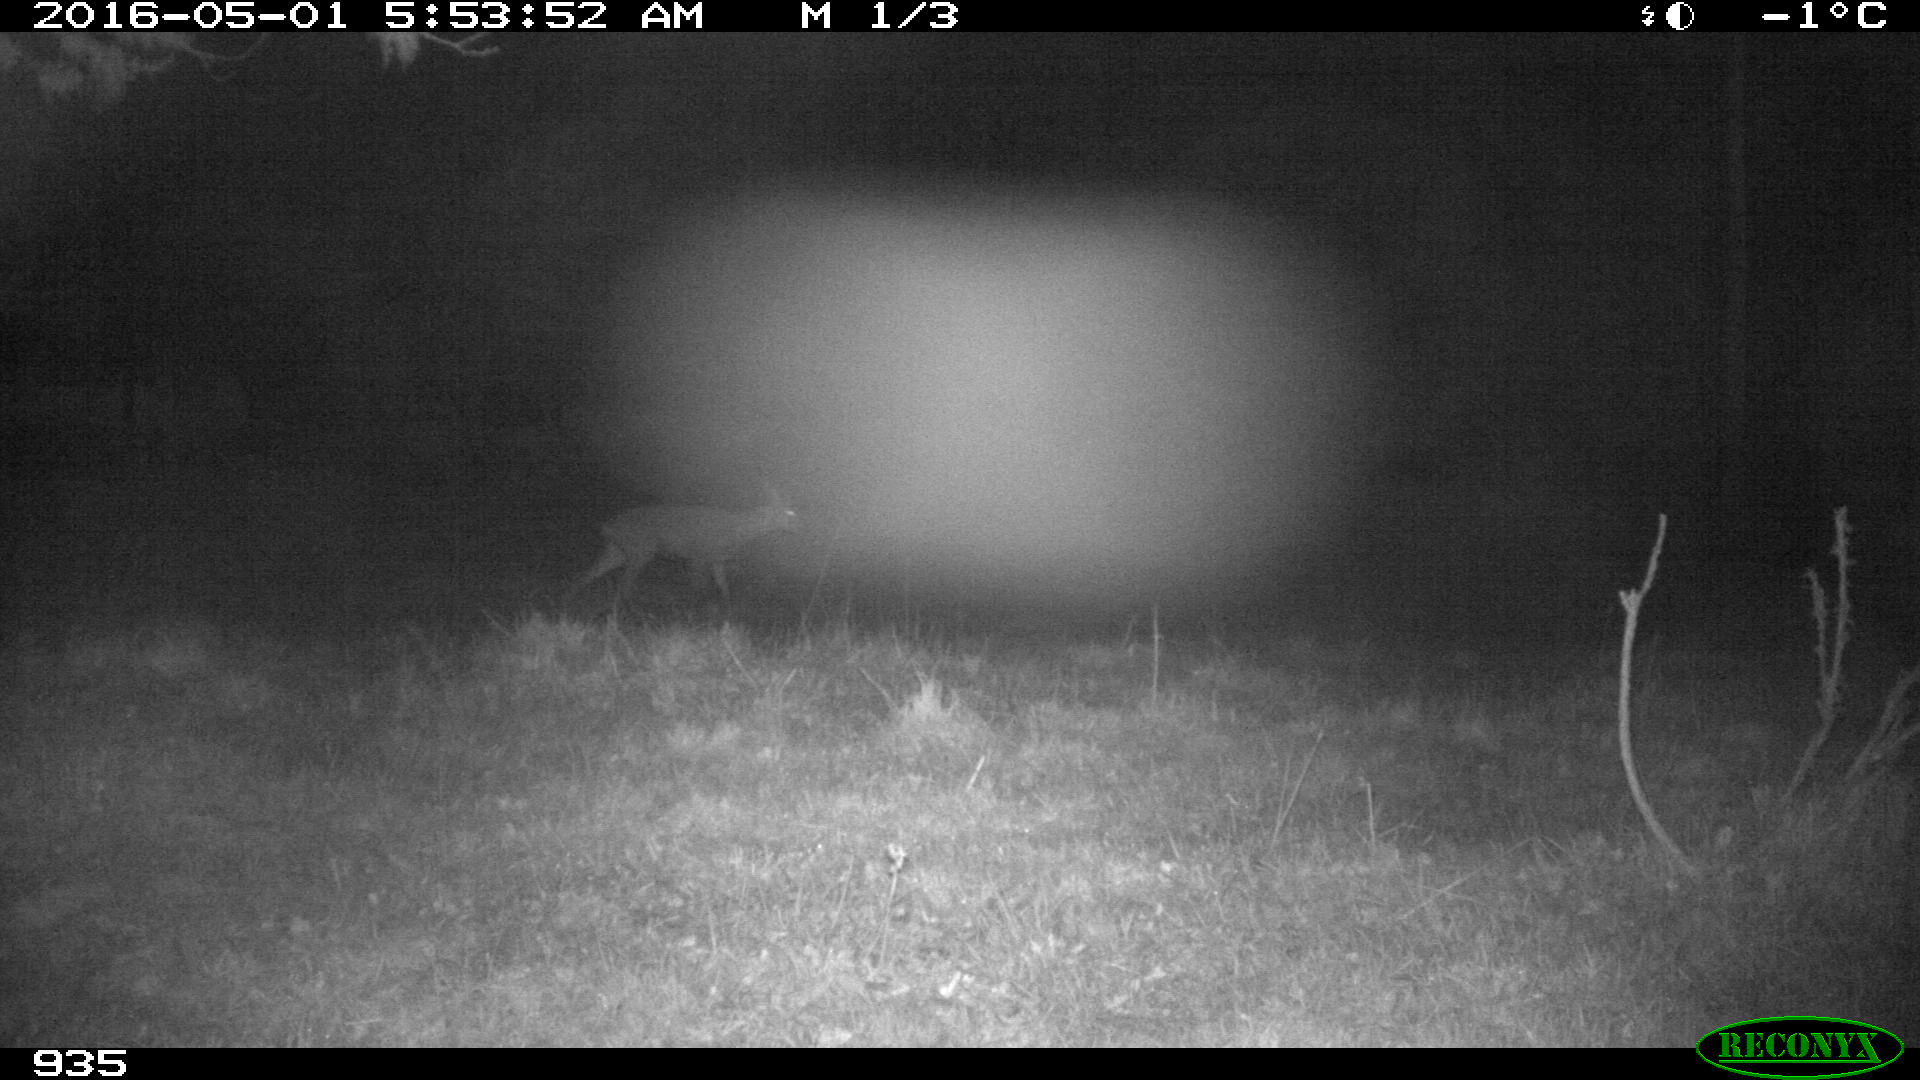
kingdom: Animalia
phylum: Chordata
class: Mammalia
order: Artiodactyla
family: Cervidae
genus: Capreolus
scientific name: Capreolus capreolus
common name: Western roe deer
